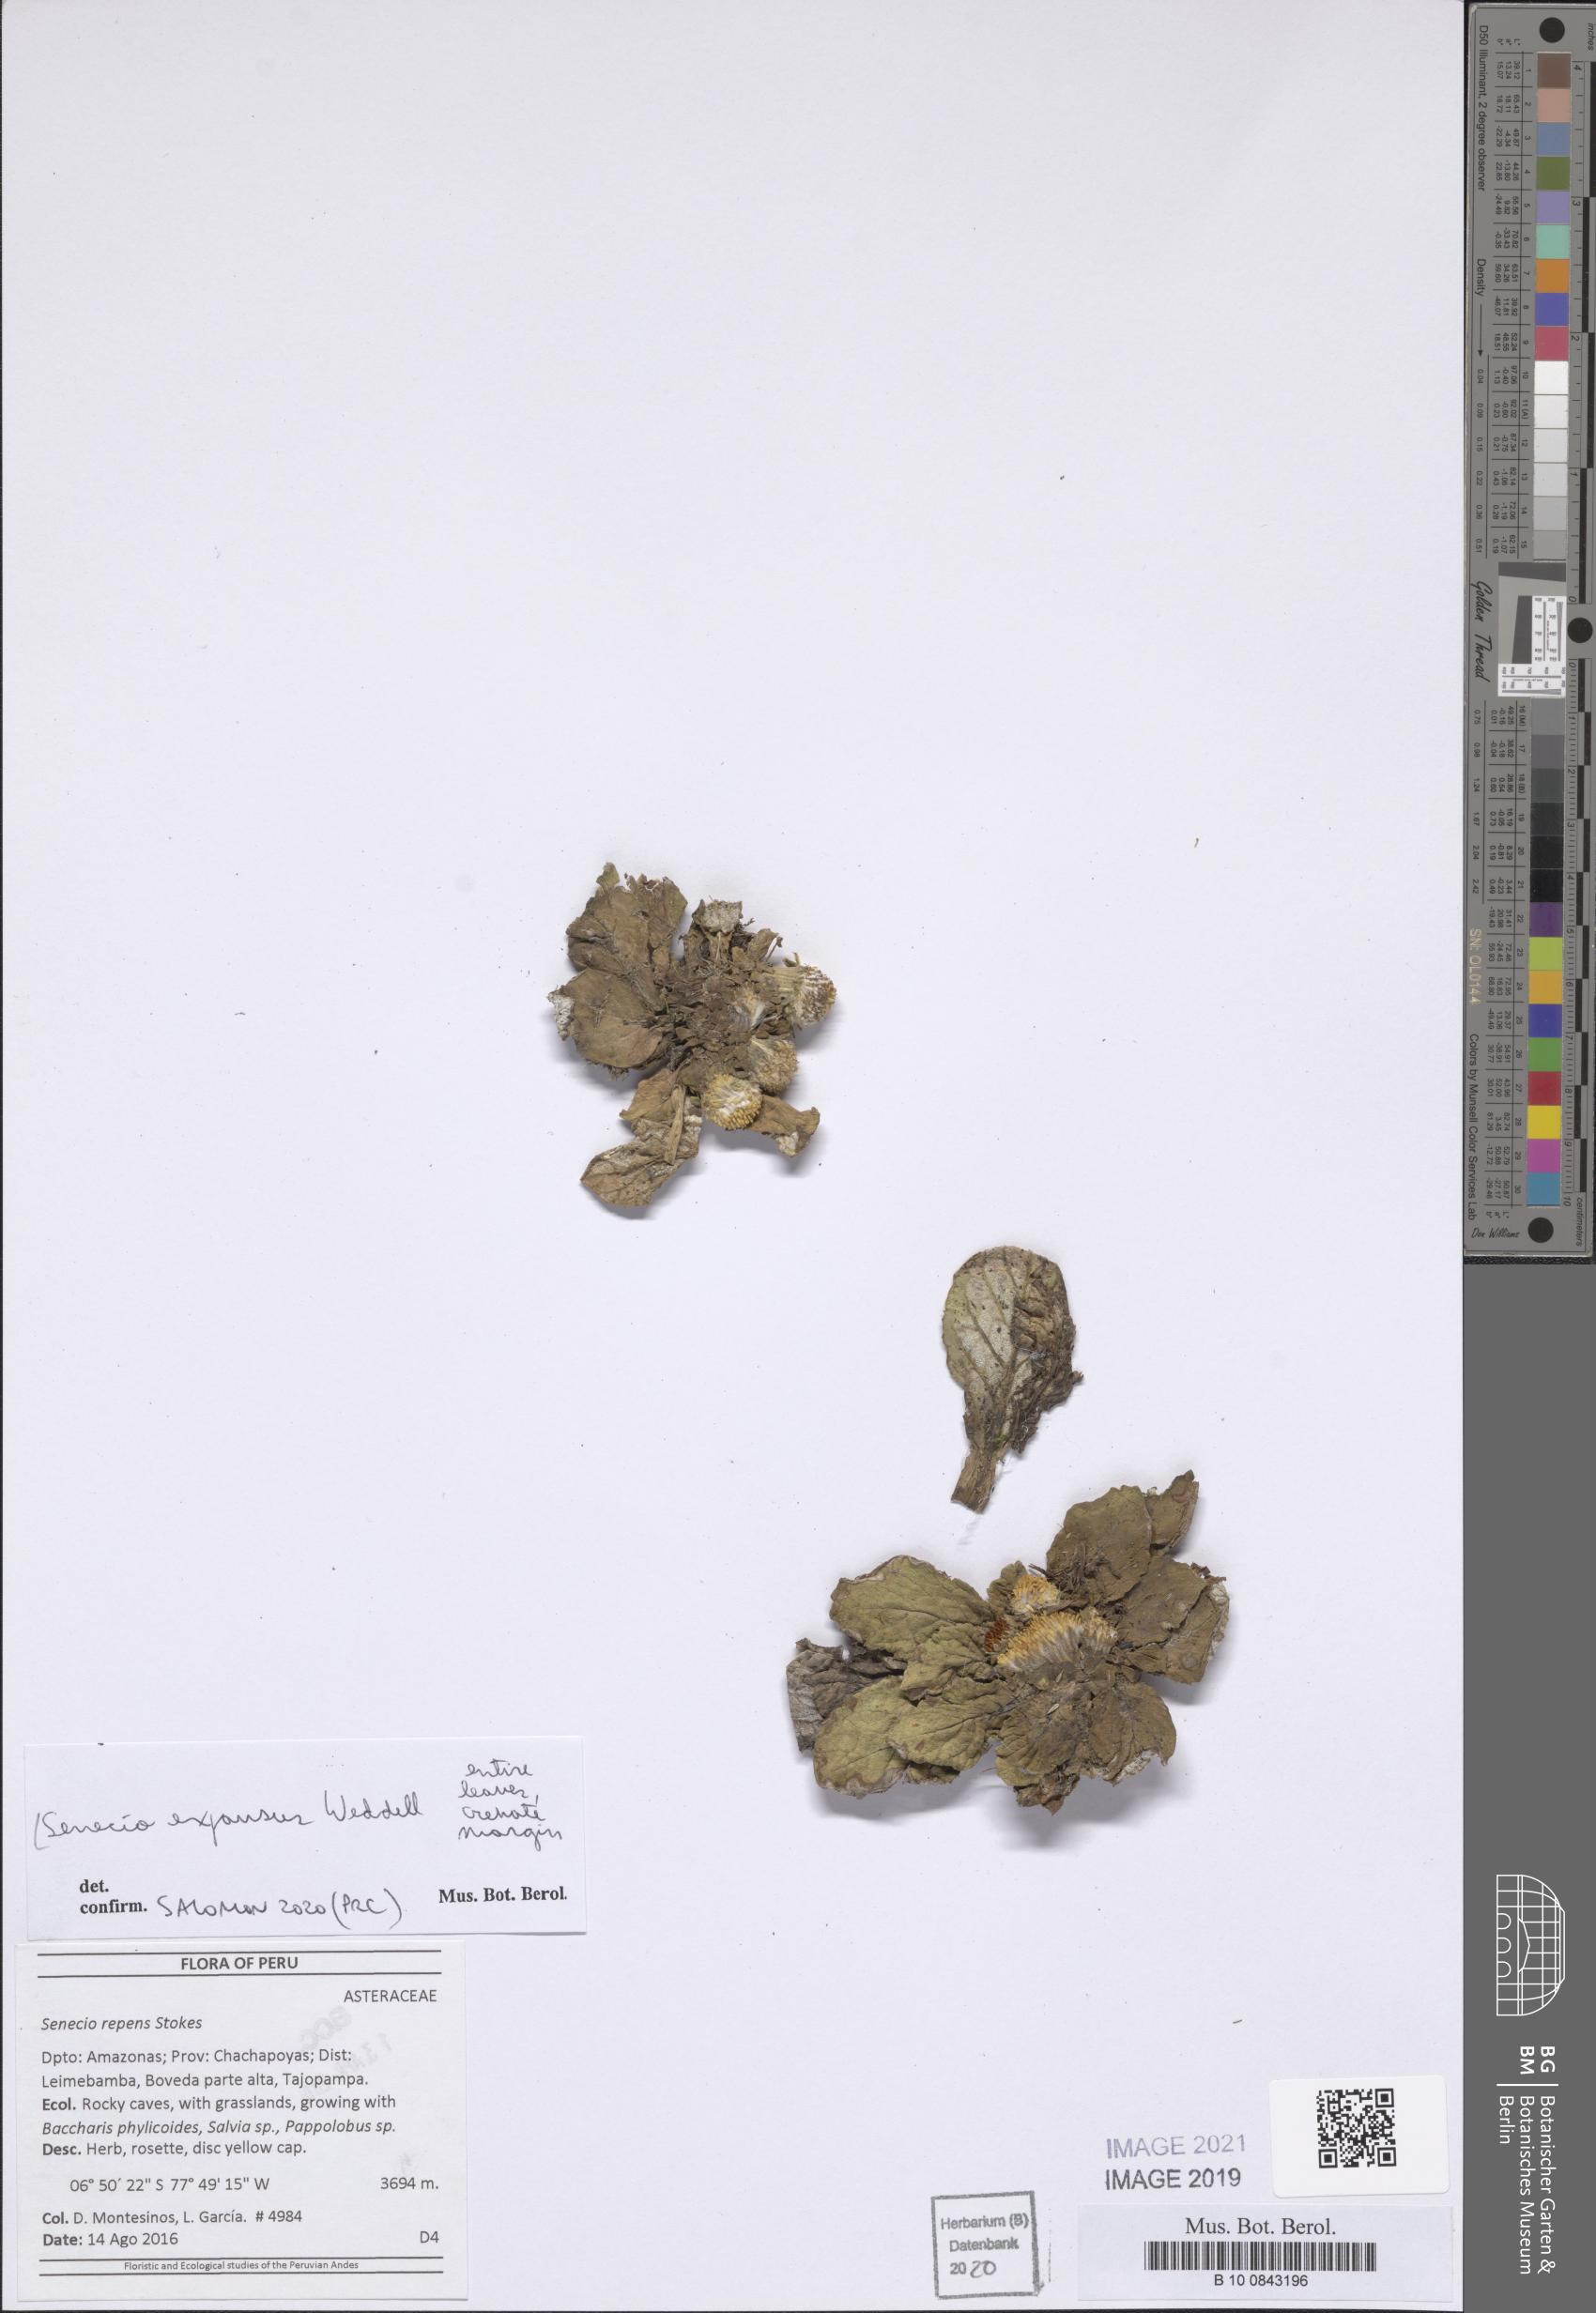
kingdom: Plantae
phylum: Tracheophyta
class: Magnoliopsida
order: Asterales
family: Asteraceae
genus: Senecio
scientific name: Senecio expansus
